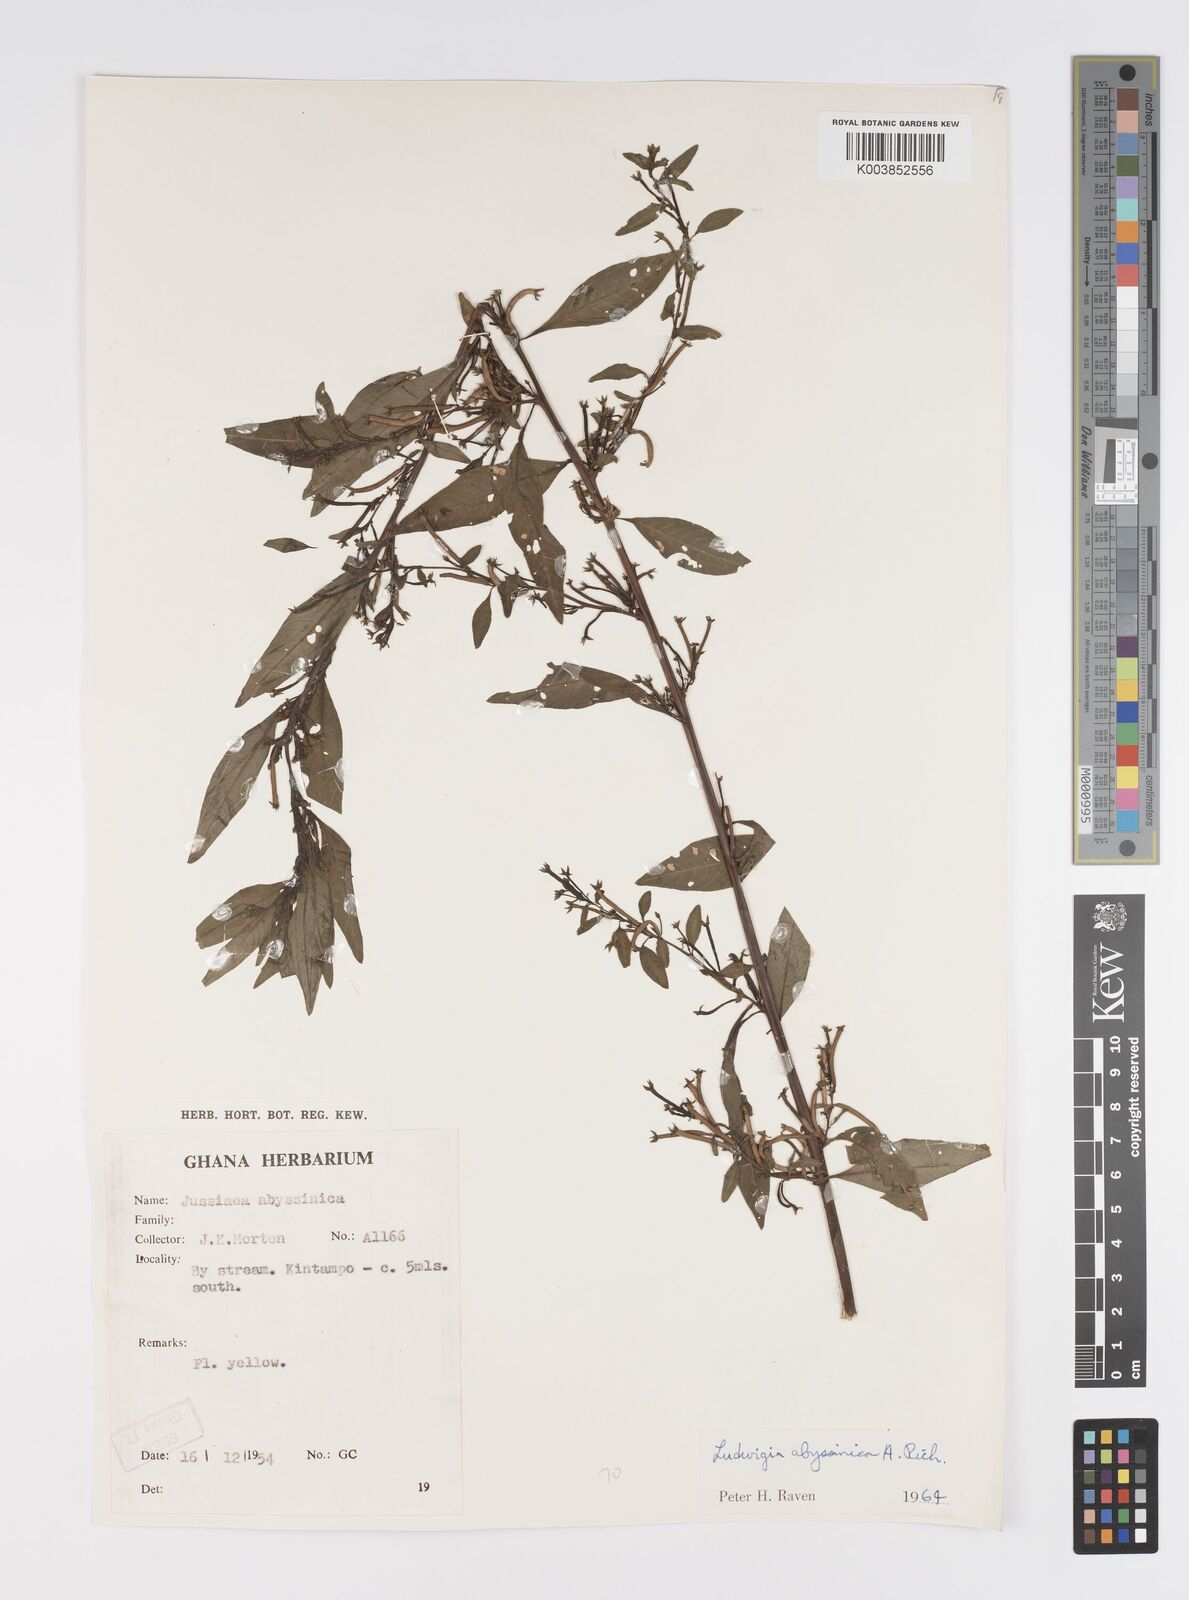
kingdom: Plantae
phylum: Tracheophyta
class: Magnoliopsida
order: Myrtales
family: Onagraceae
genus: Ludwigia
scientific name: Ludwigia abyssinica
